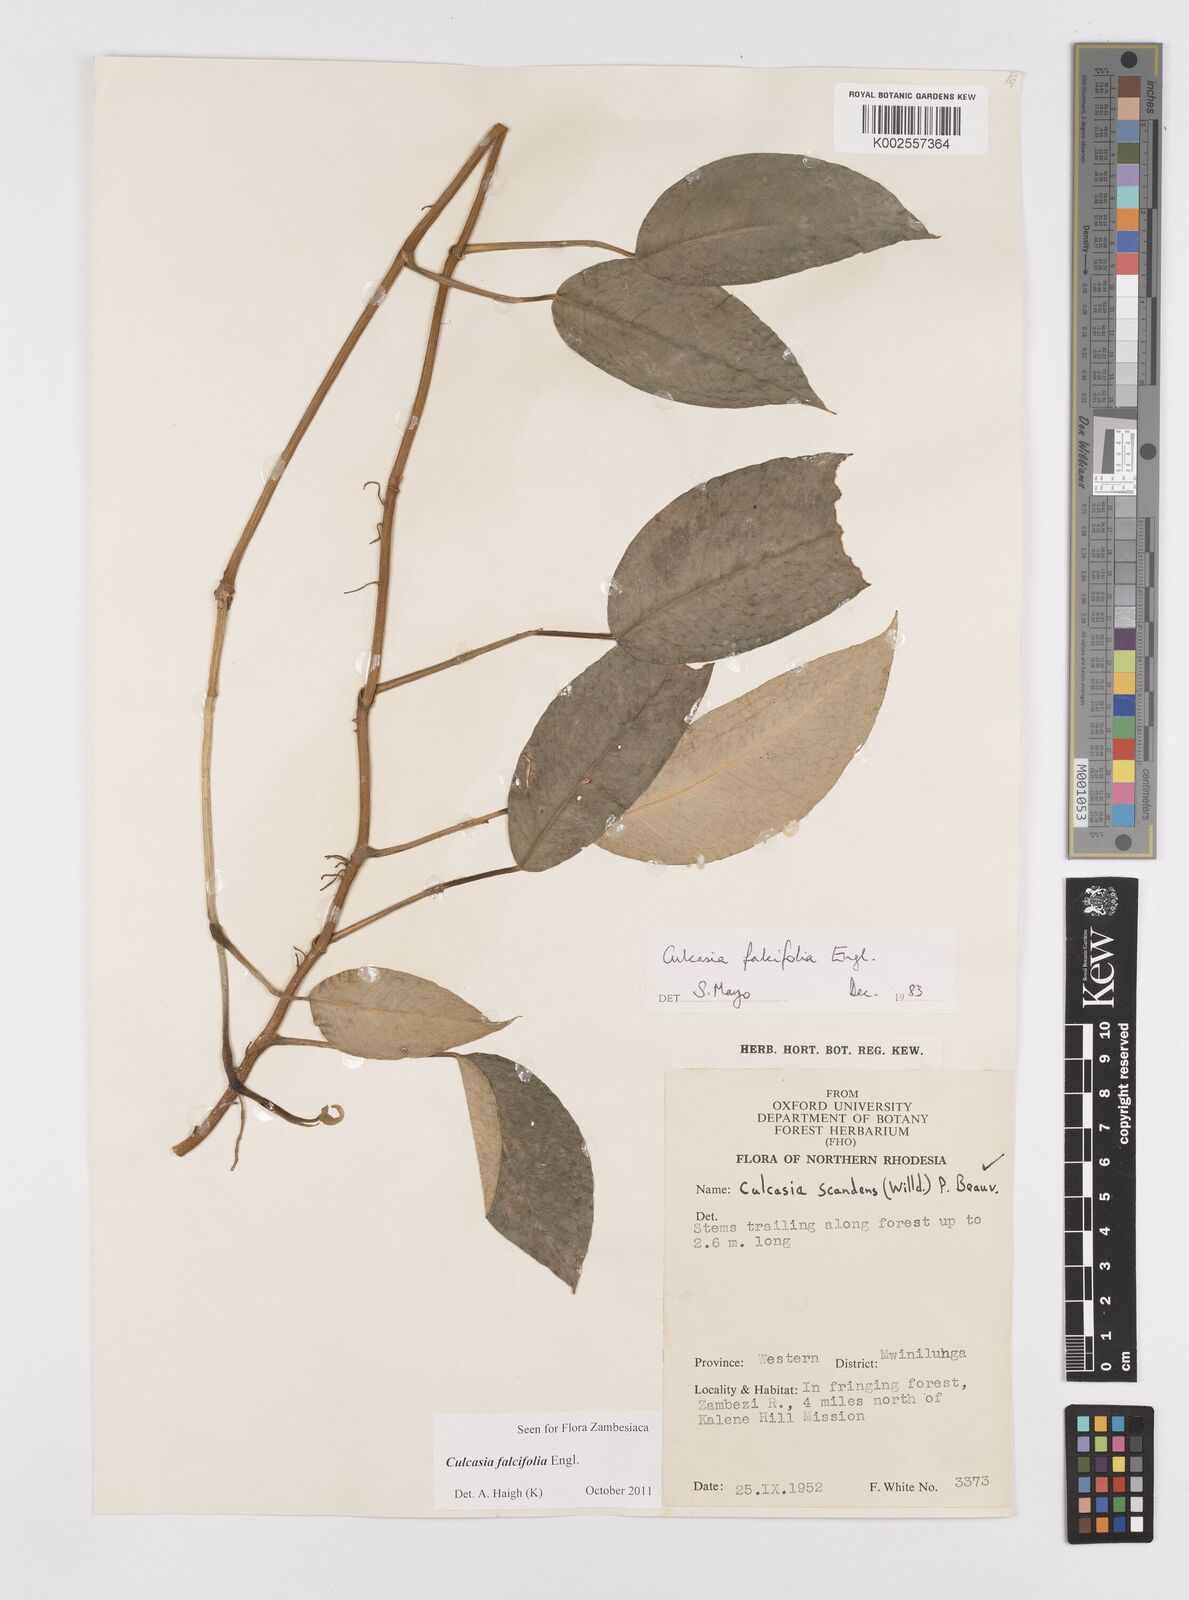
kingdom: Plantae
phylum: Tracheophyta
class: Liliopsida
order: Alismatales
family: Araceae
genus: Culcasia
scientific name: Culcasia falcifolia
